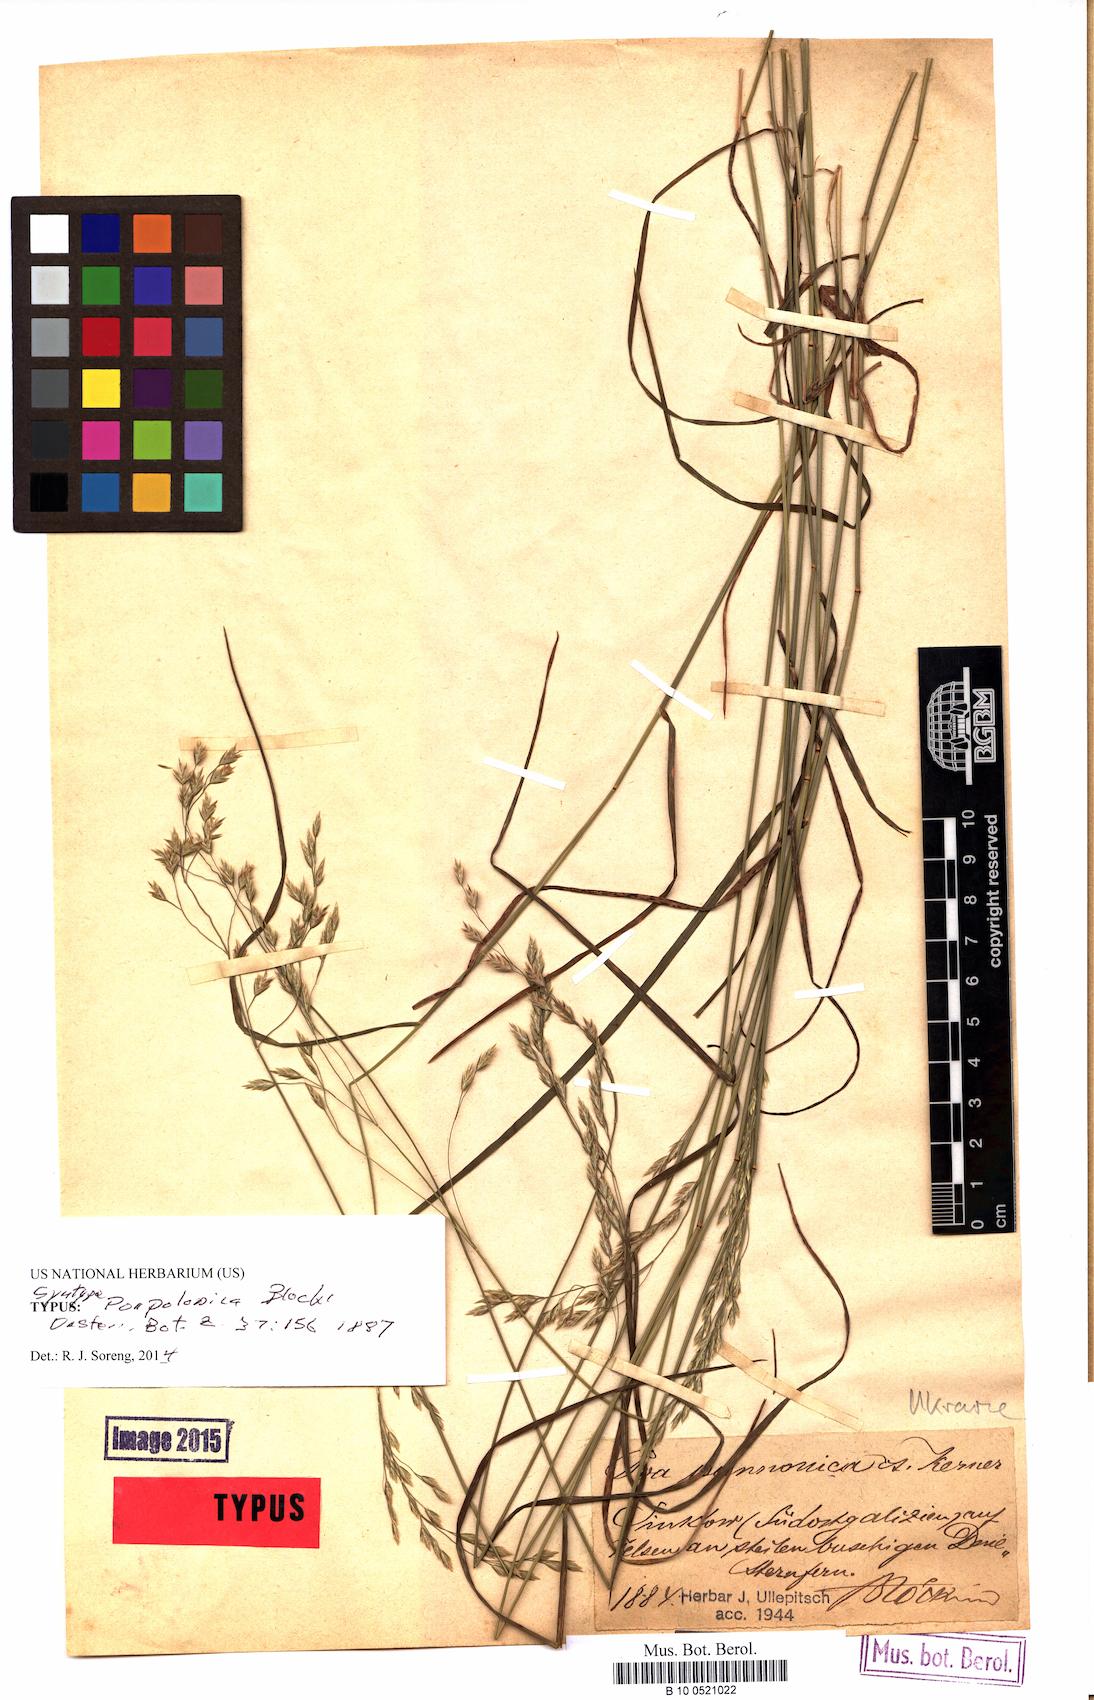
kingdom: Plantae
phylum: Tracheophyta
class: Liliopsida
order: Poales
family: Poaceae
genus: Poa
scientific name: Poa versicolor
